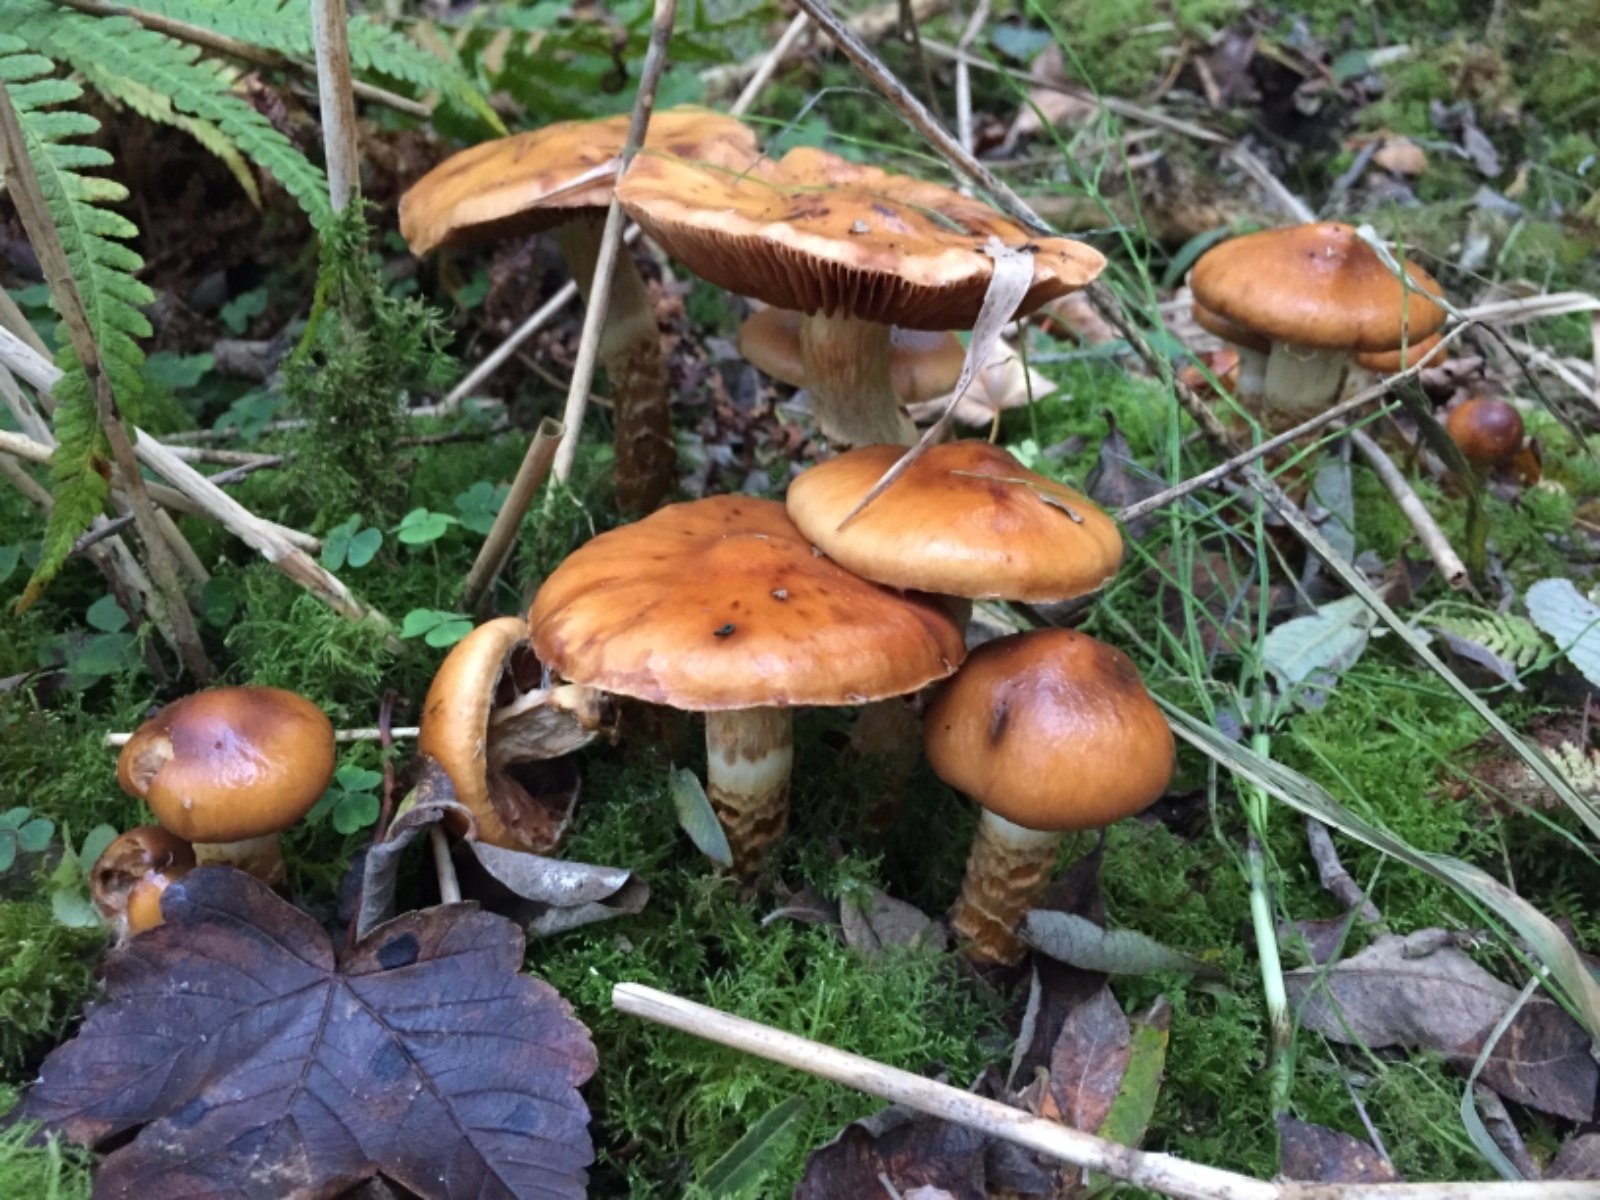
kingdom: Fungi
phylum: Basidiomycota
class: Agaricomycetes
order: Agaricales
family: Cortinariaceae
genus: Cortinarius
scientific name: Cortinarius trivialis
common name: brunslimet slørhat
